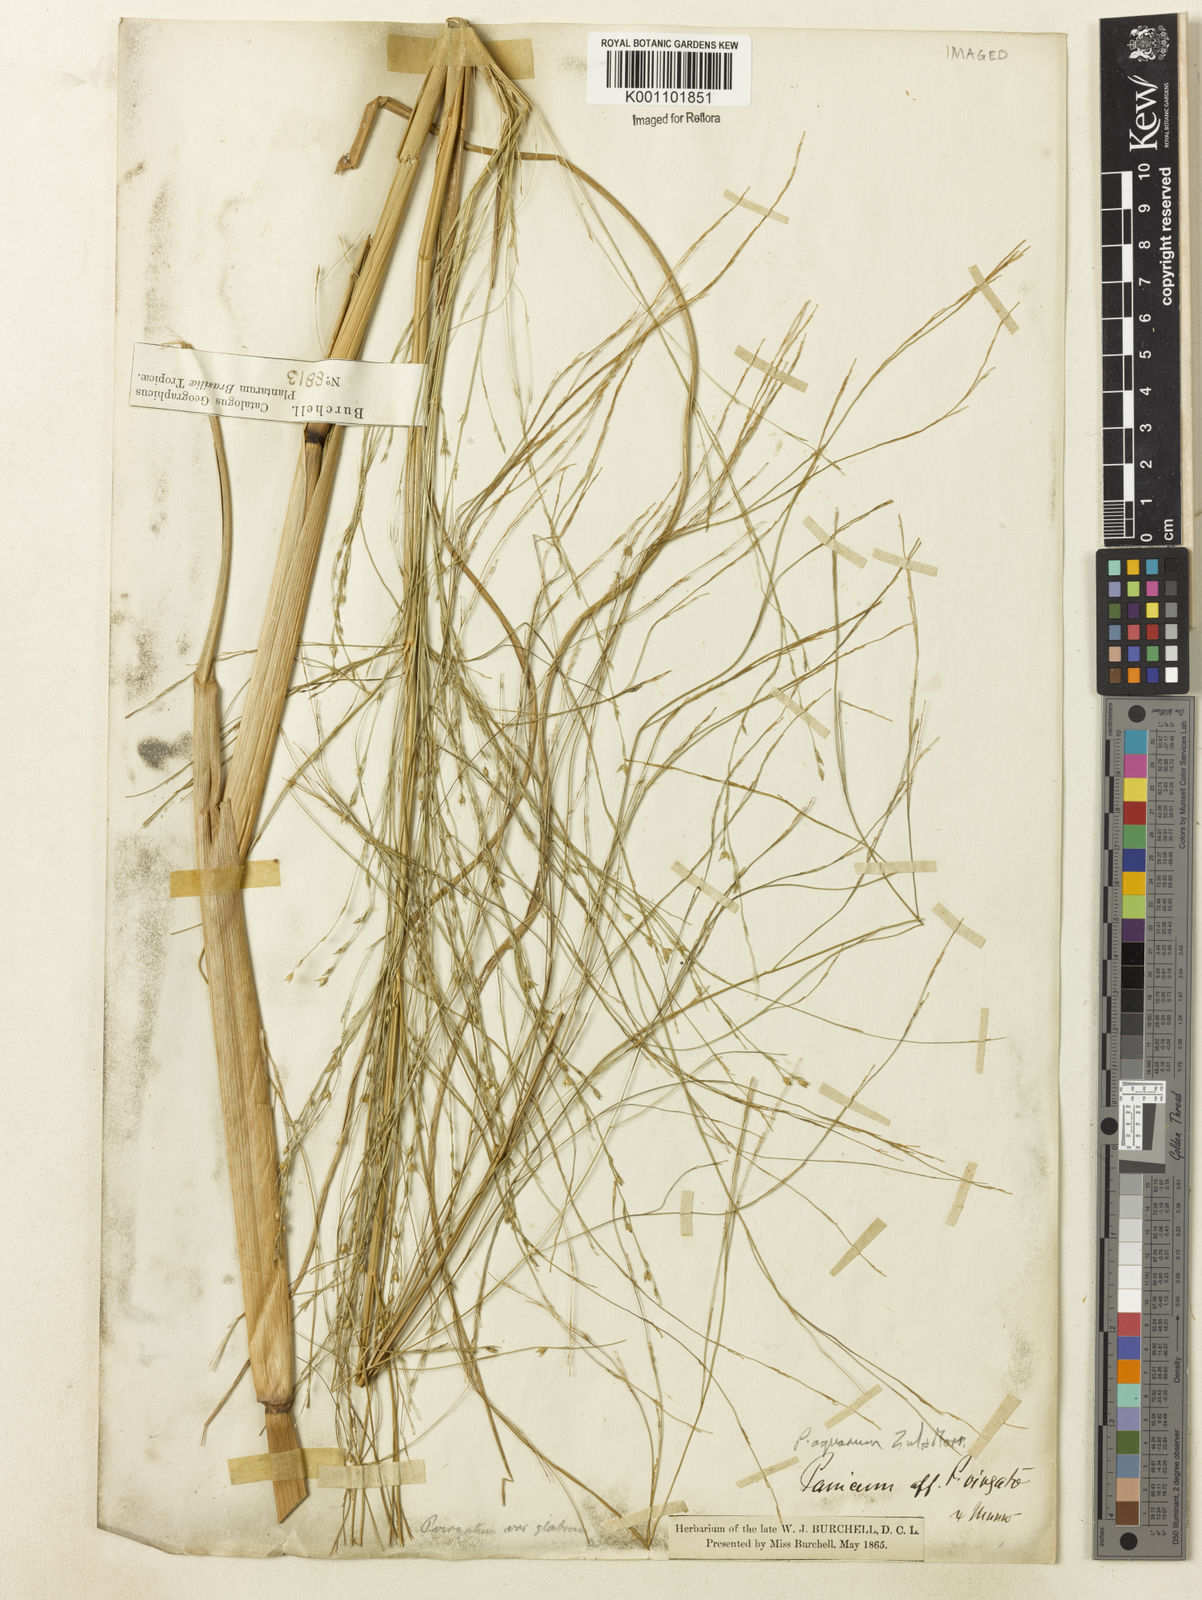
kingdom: Plantae
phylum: Tracheophyta
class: Liliopsida
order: Poales
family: Poaceae
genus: Panicum
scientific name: Panicum aquarum
